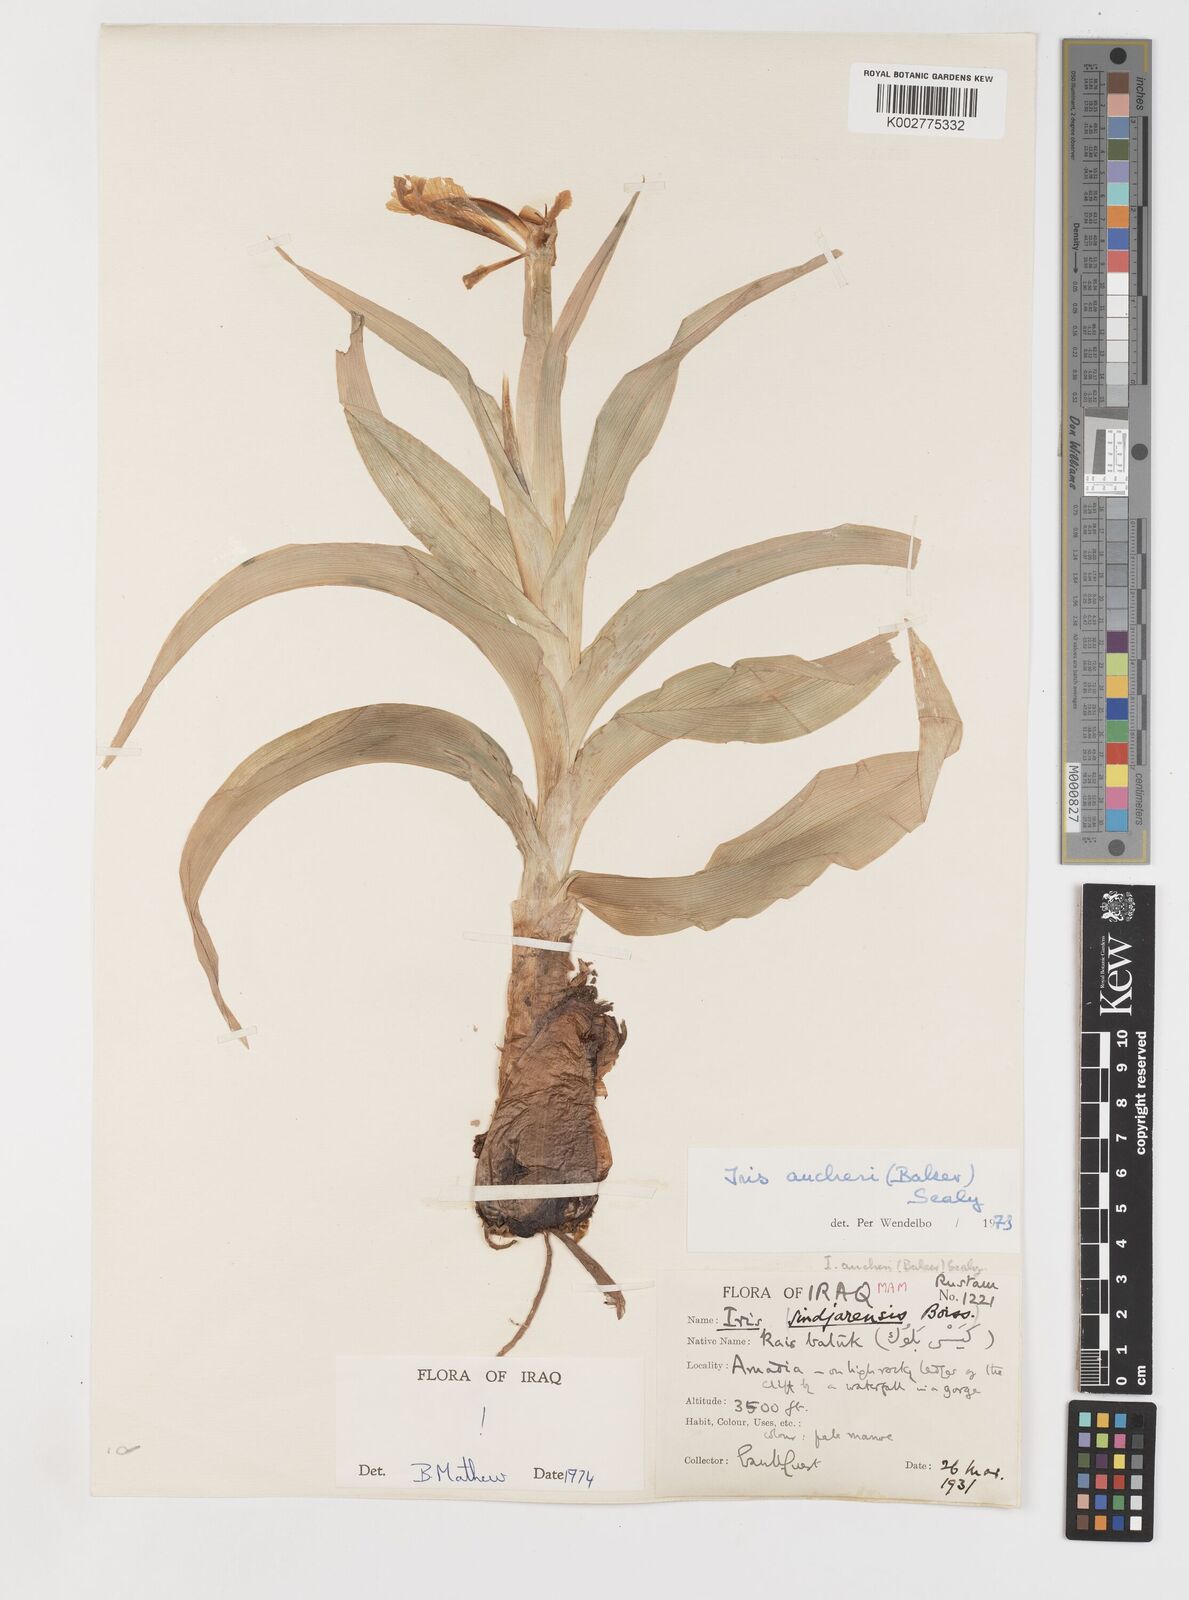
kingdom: Plantae
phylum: Tracheophyta
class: Liliopsida
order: Asparagales
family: Iridaceae
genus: Iris
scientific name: Iris aucheri
